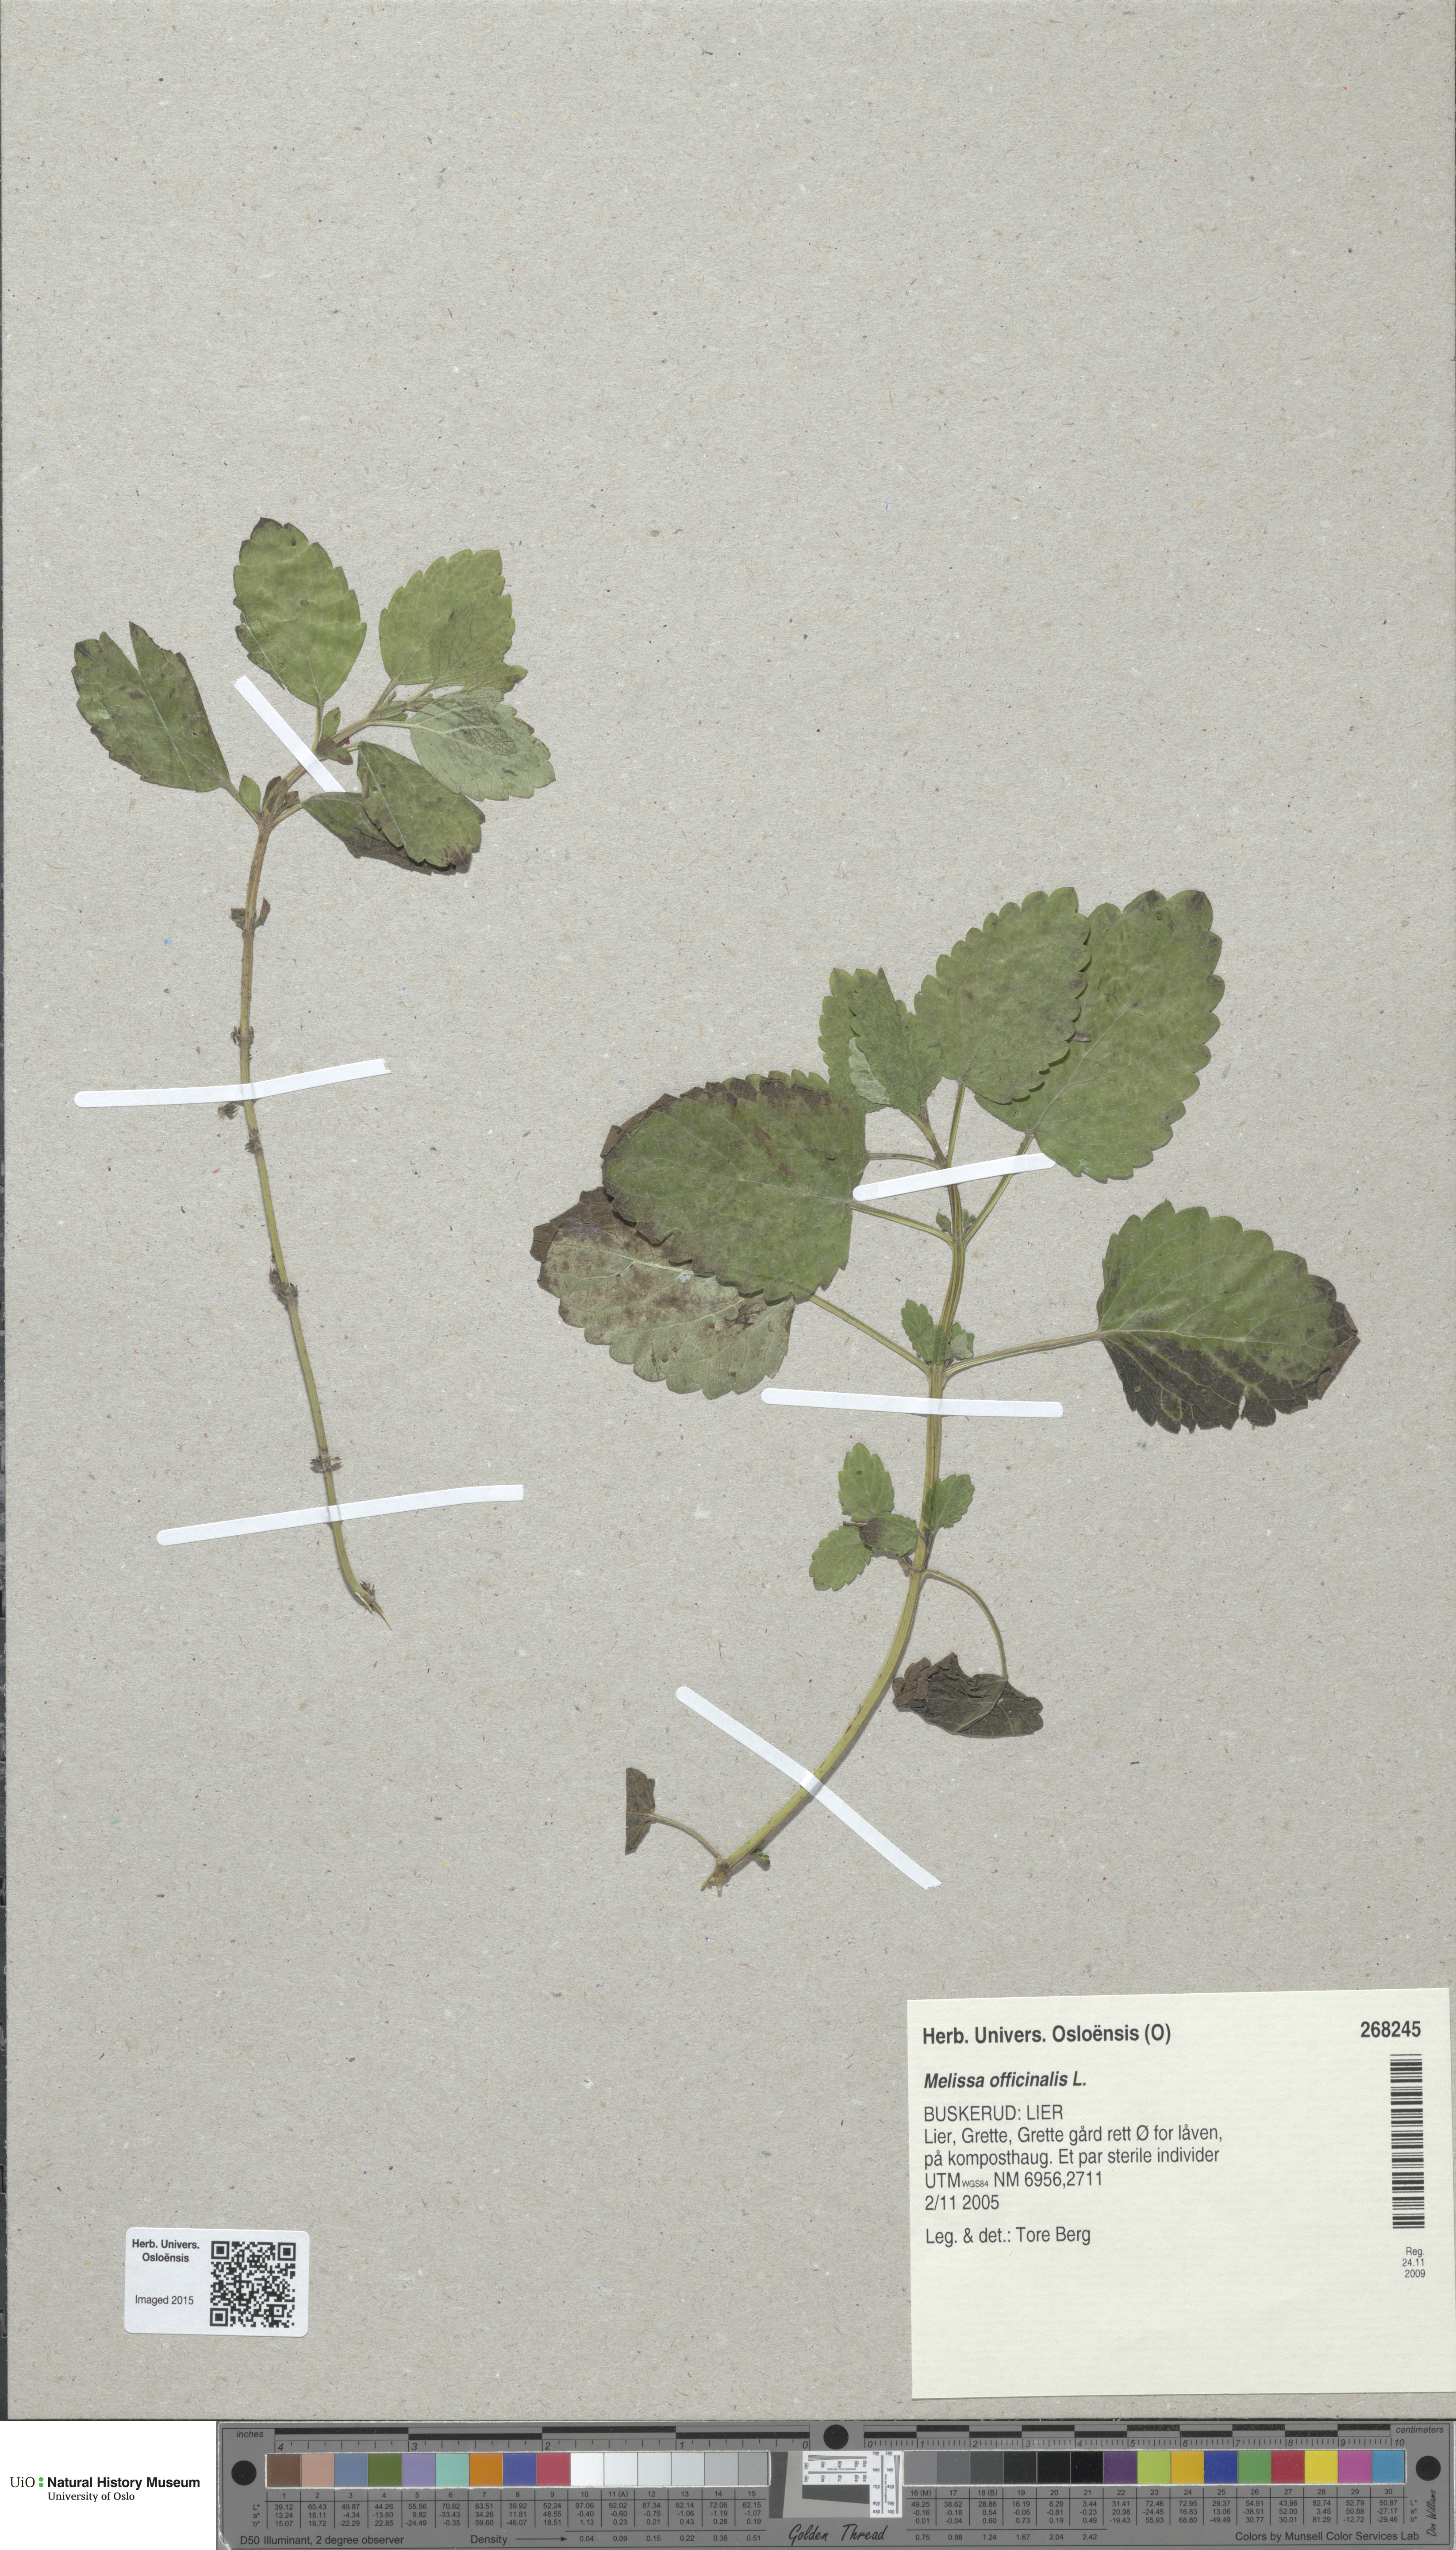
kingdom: Plantae
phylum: Tracheophyta
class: Magnoliopsida
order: Lamiales
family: Lamiaceae
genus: Melissa
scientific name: Melissa officinalis
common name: Balm
